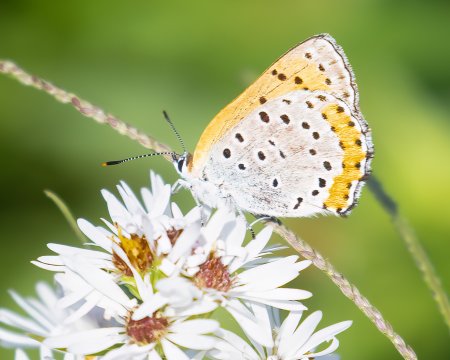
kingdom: Animalia
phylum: Arthropoda
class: Insecta
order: Lepidoptera
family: Sesiidae
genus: Sesia
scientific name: Sesia Lycaena hyllus
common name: Bronze Copper
